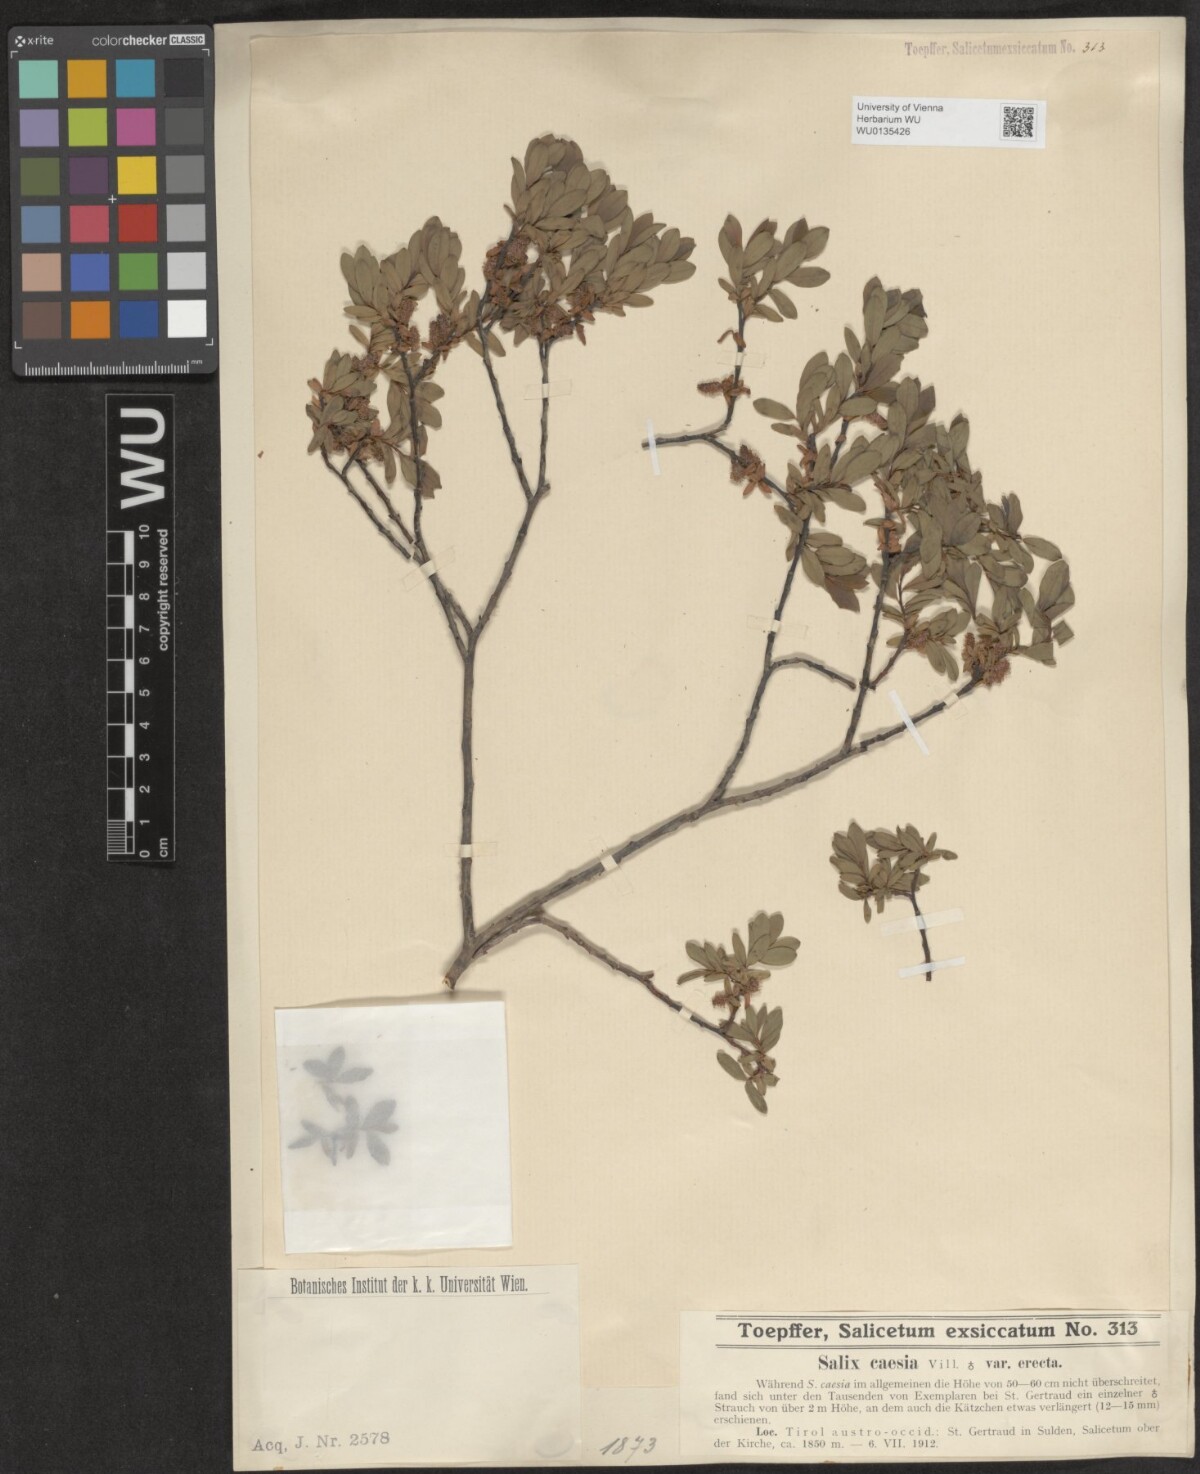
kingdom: Plantae
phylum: Tracheophyta
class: Magnoliopsida
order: Malpighiales
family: Salicaceae
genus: Salix
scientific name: Salix caesia
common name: Blue willow
